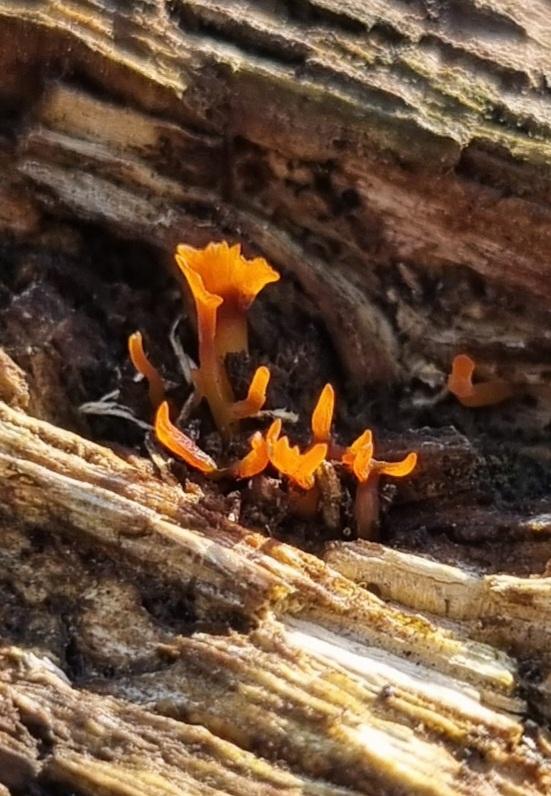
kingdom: Fungi
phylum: Basidiomycota
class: Dacrymycetes
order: Dacrymycetales
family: Dacrymycetaceae
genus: Calocera
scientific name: Calocera
